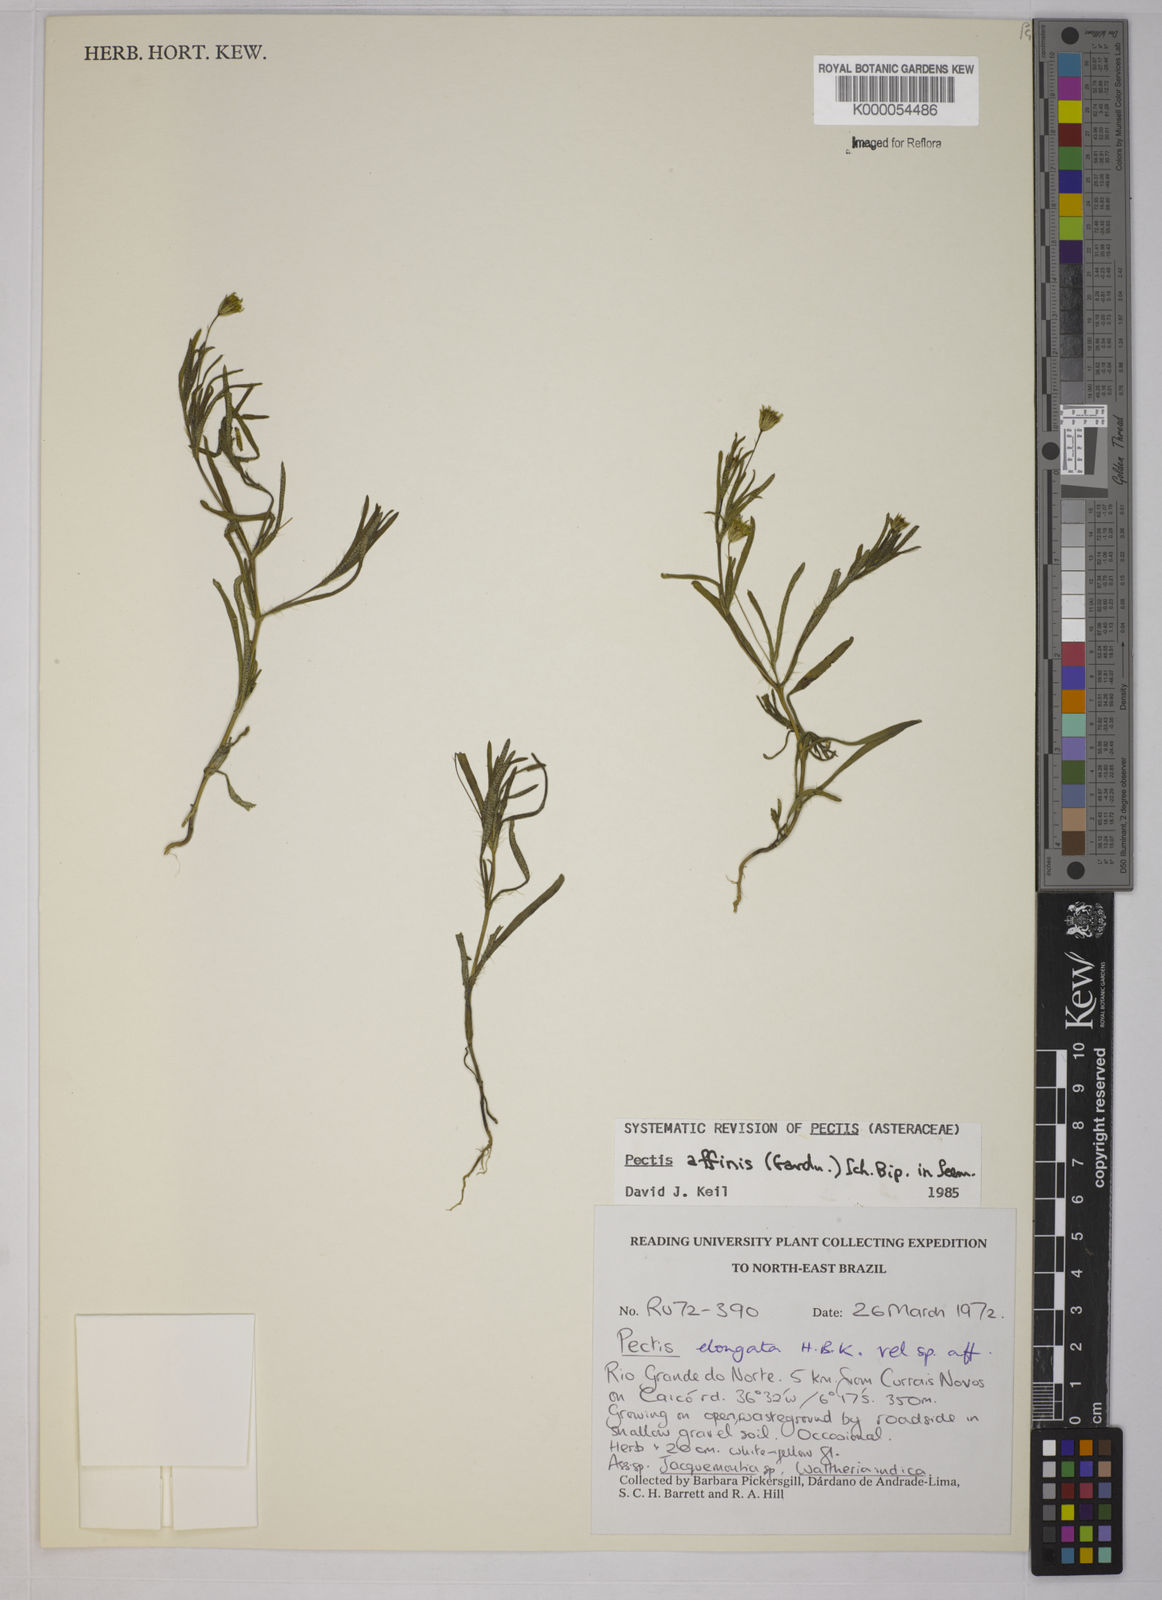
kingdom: Plantae
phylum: Tracheophyta
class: Magnoliopsida
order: Asterales
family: Asteraceae
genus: Pectis
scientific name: Pectis elongata
